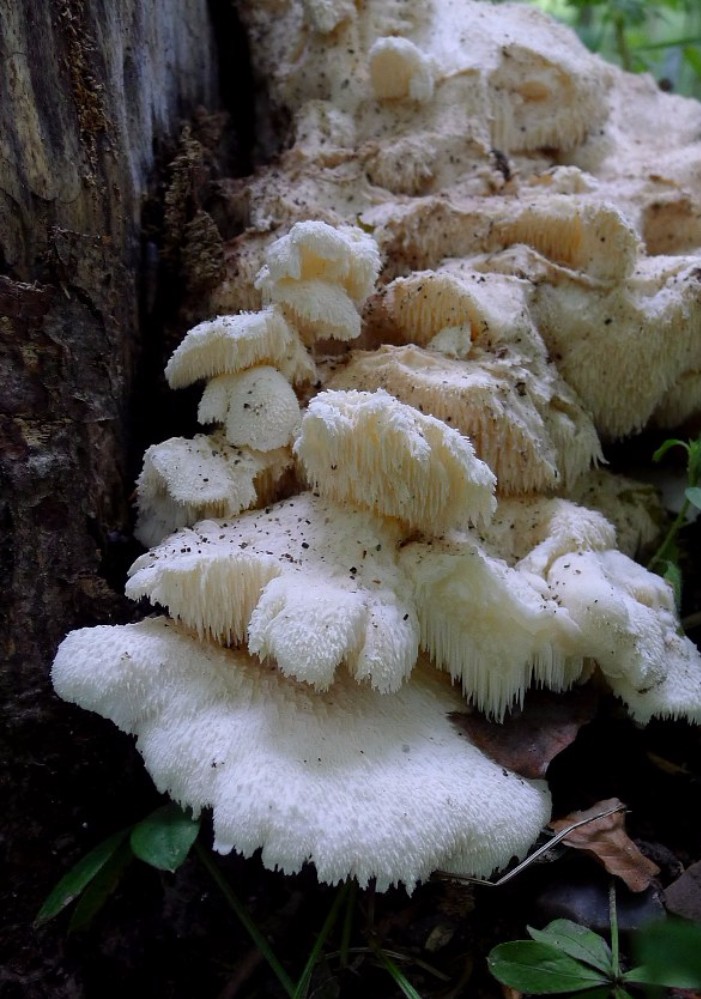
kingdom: Fungi
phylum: Basidiomycota
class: Agaricomycetes
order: Russulales
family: Hericiaceae
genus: Hericium
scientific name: Hericium cirrhatum
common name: børstepigsvamp
